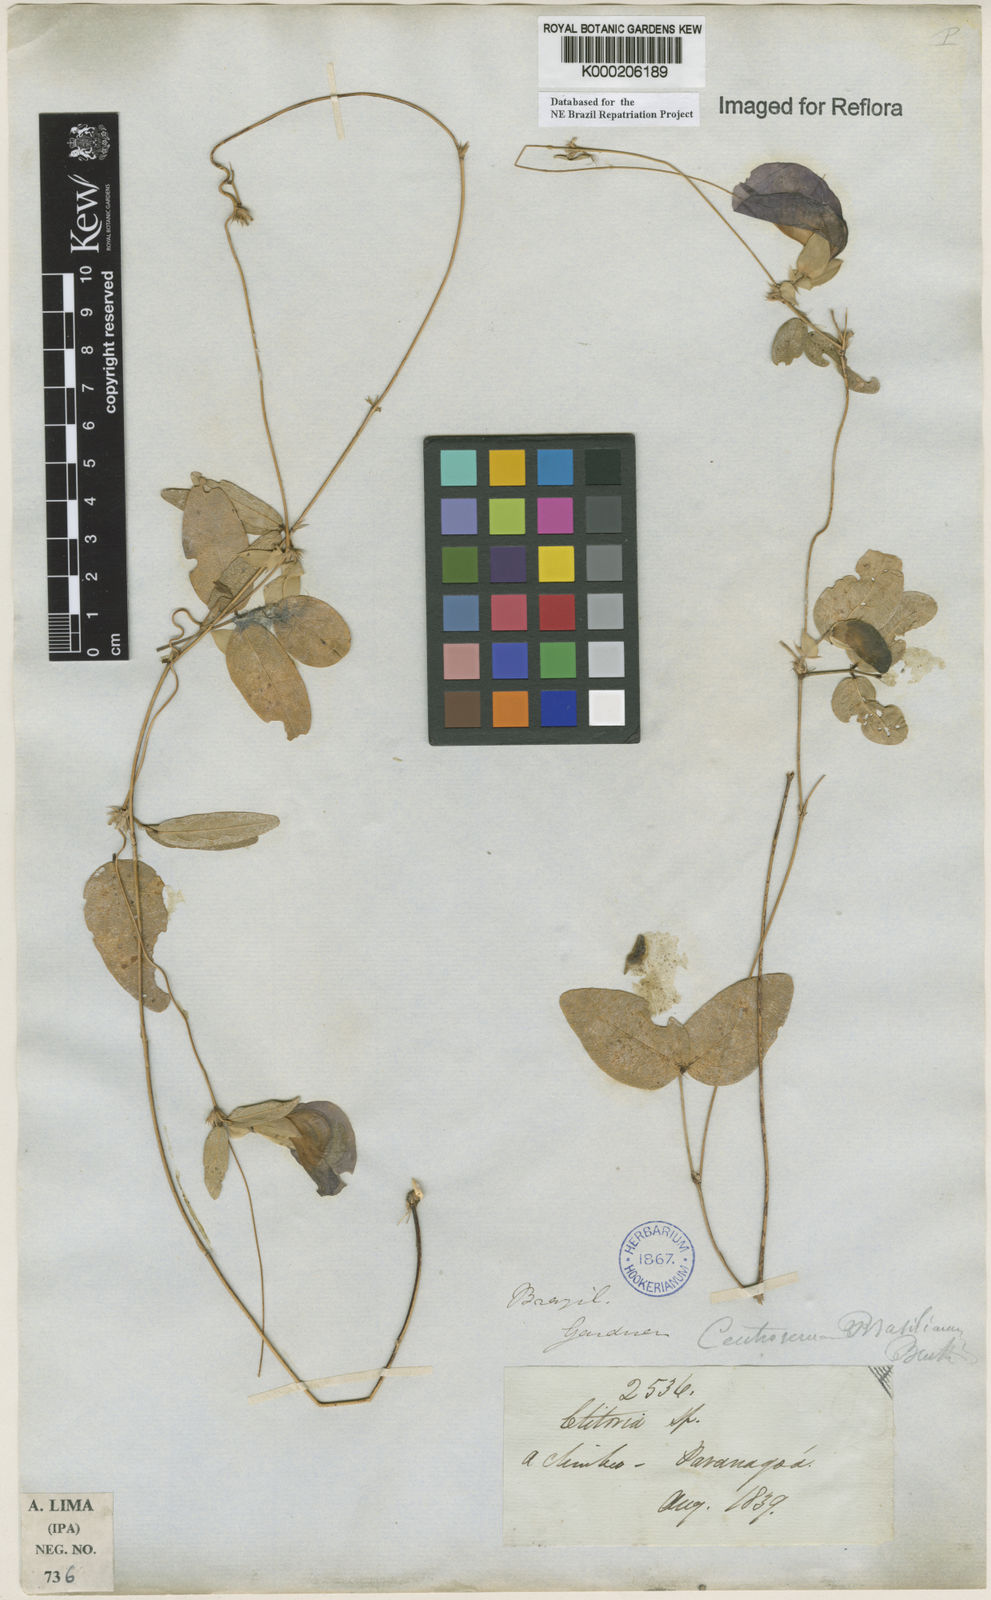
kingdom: Plantae
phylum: Tracheophyta
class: Magnoliopsida
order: Fabales
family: Fabaceae
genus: Centrosema
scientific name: Centrosema brasilianum
